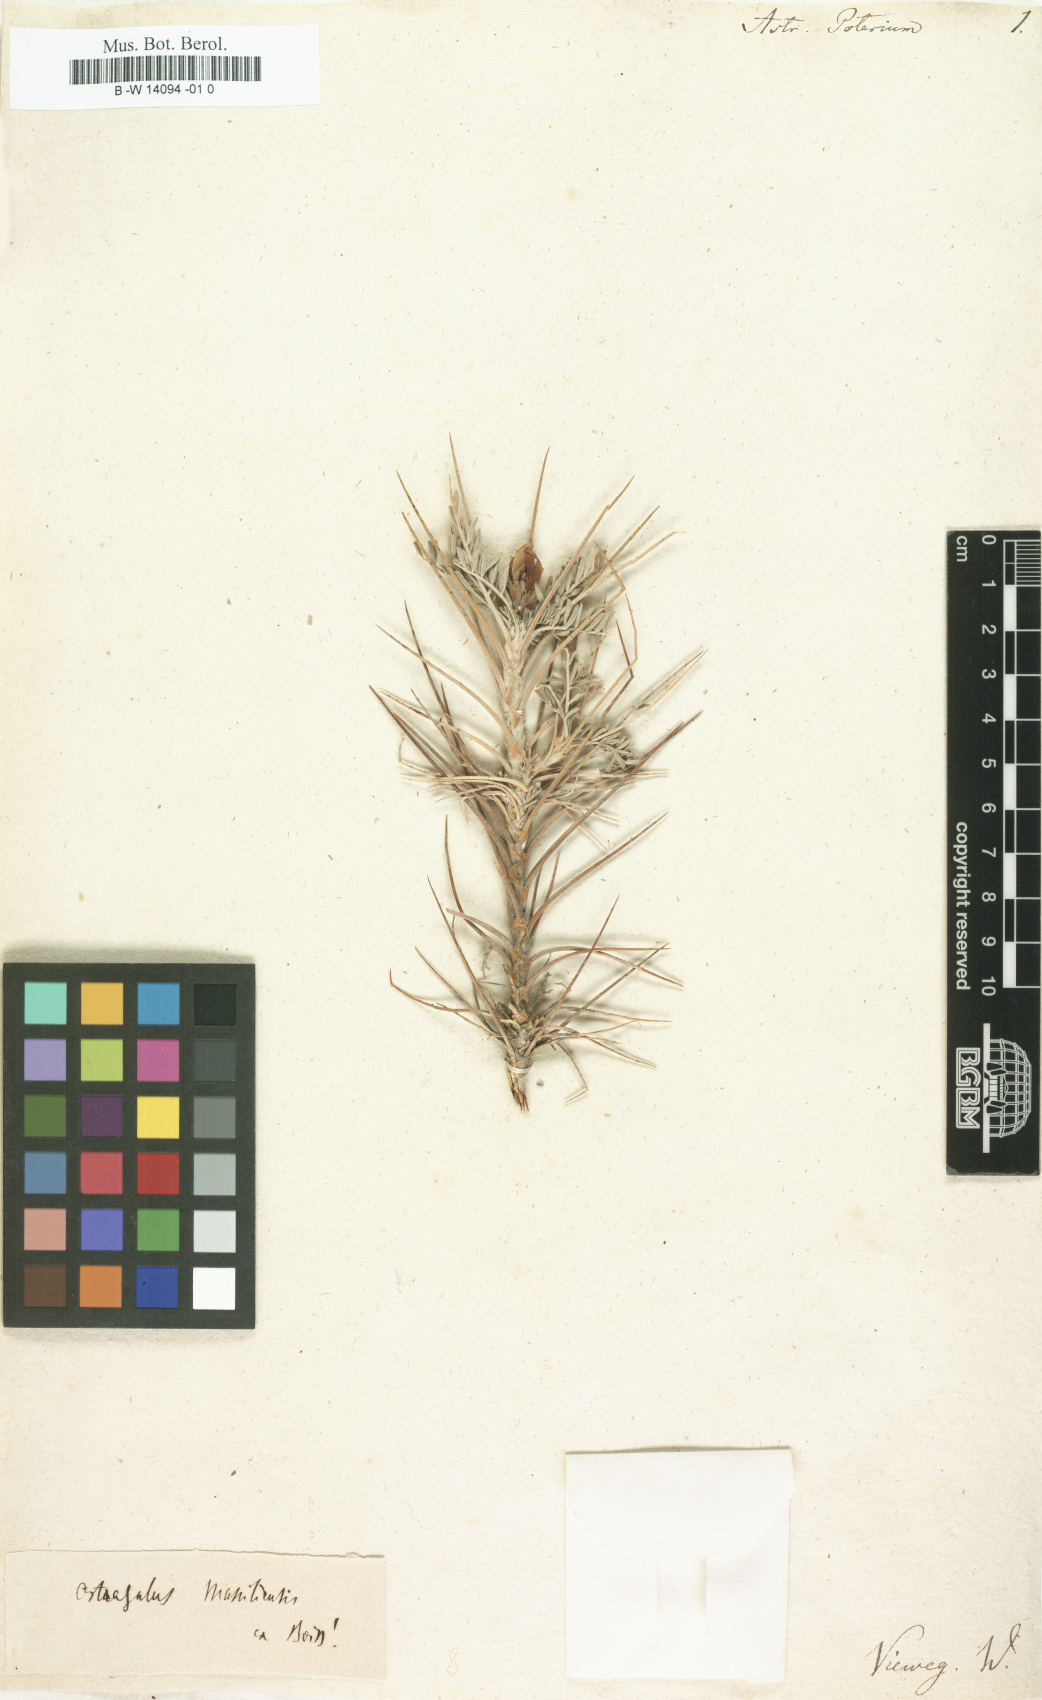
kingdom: Plantae
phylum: Tracheophyta
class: Magnoliopsida
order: Fabales
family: Fabaceae
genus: Astragalus
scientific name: Astragalus
